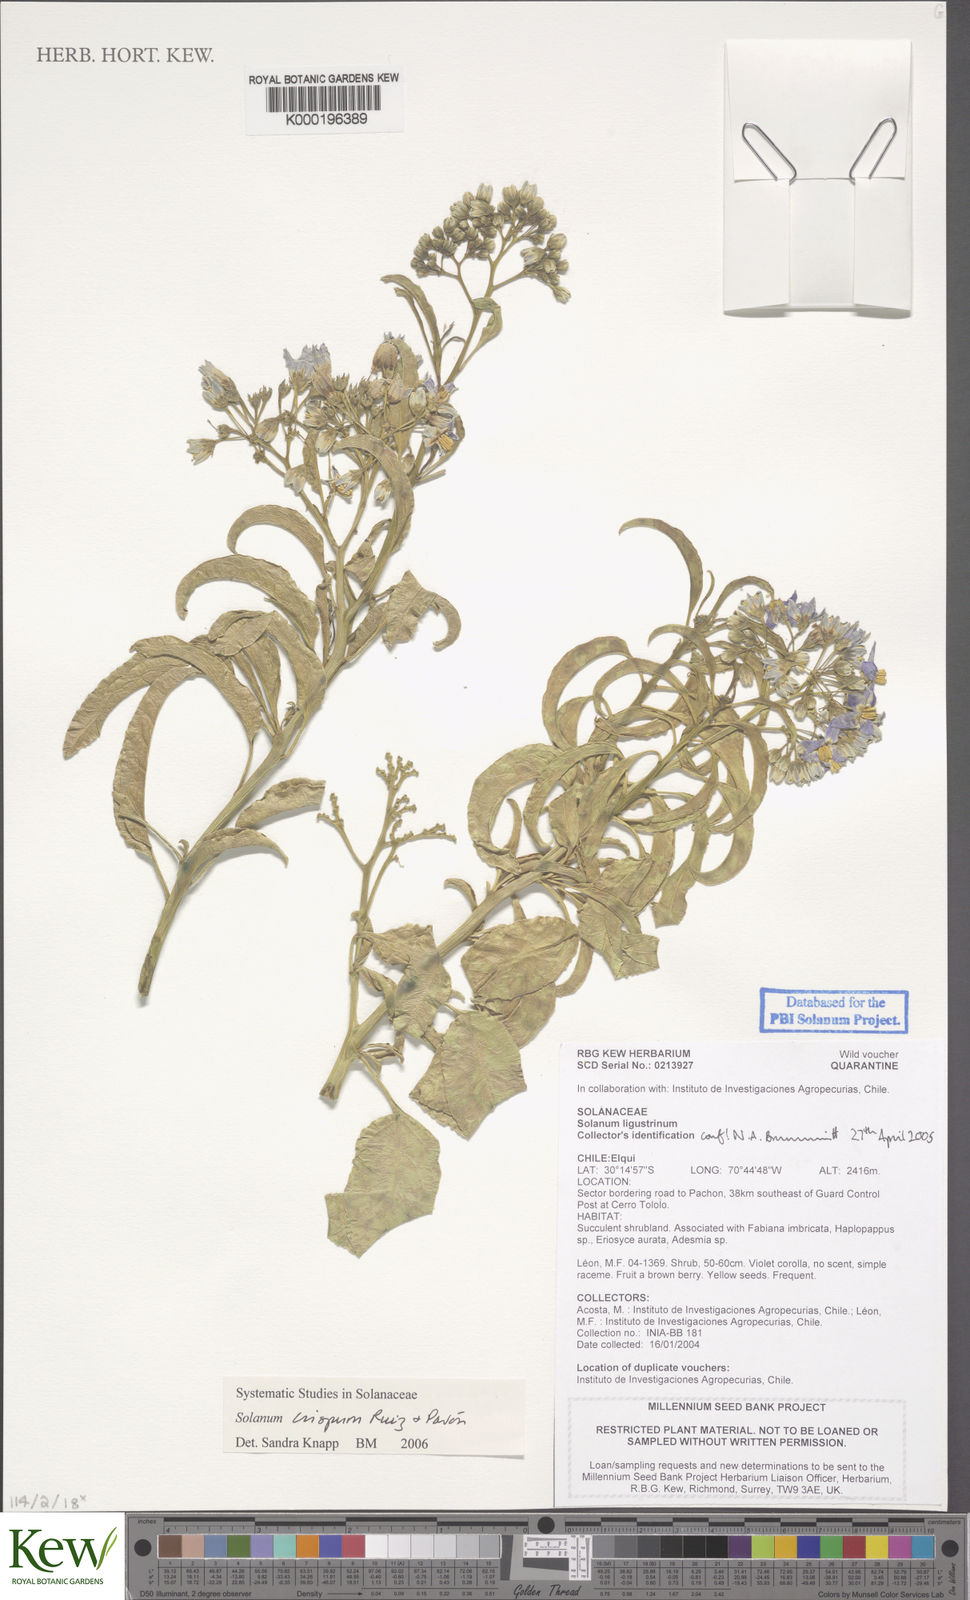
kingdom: Plantae
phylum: Tracheophyta
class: Magnoliopsida
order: Solanales
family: Solanaceae
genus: Solanum
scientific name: Solanum crispum
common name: Chilean nightshade
